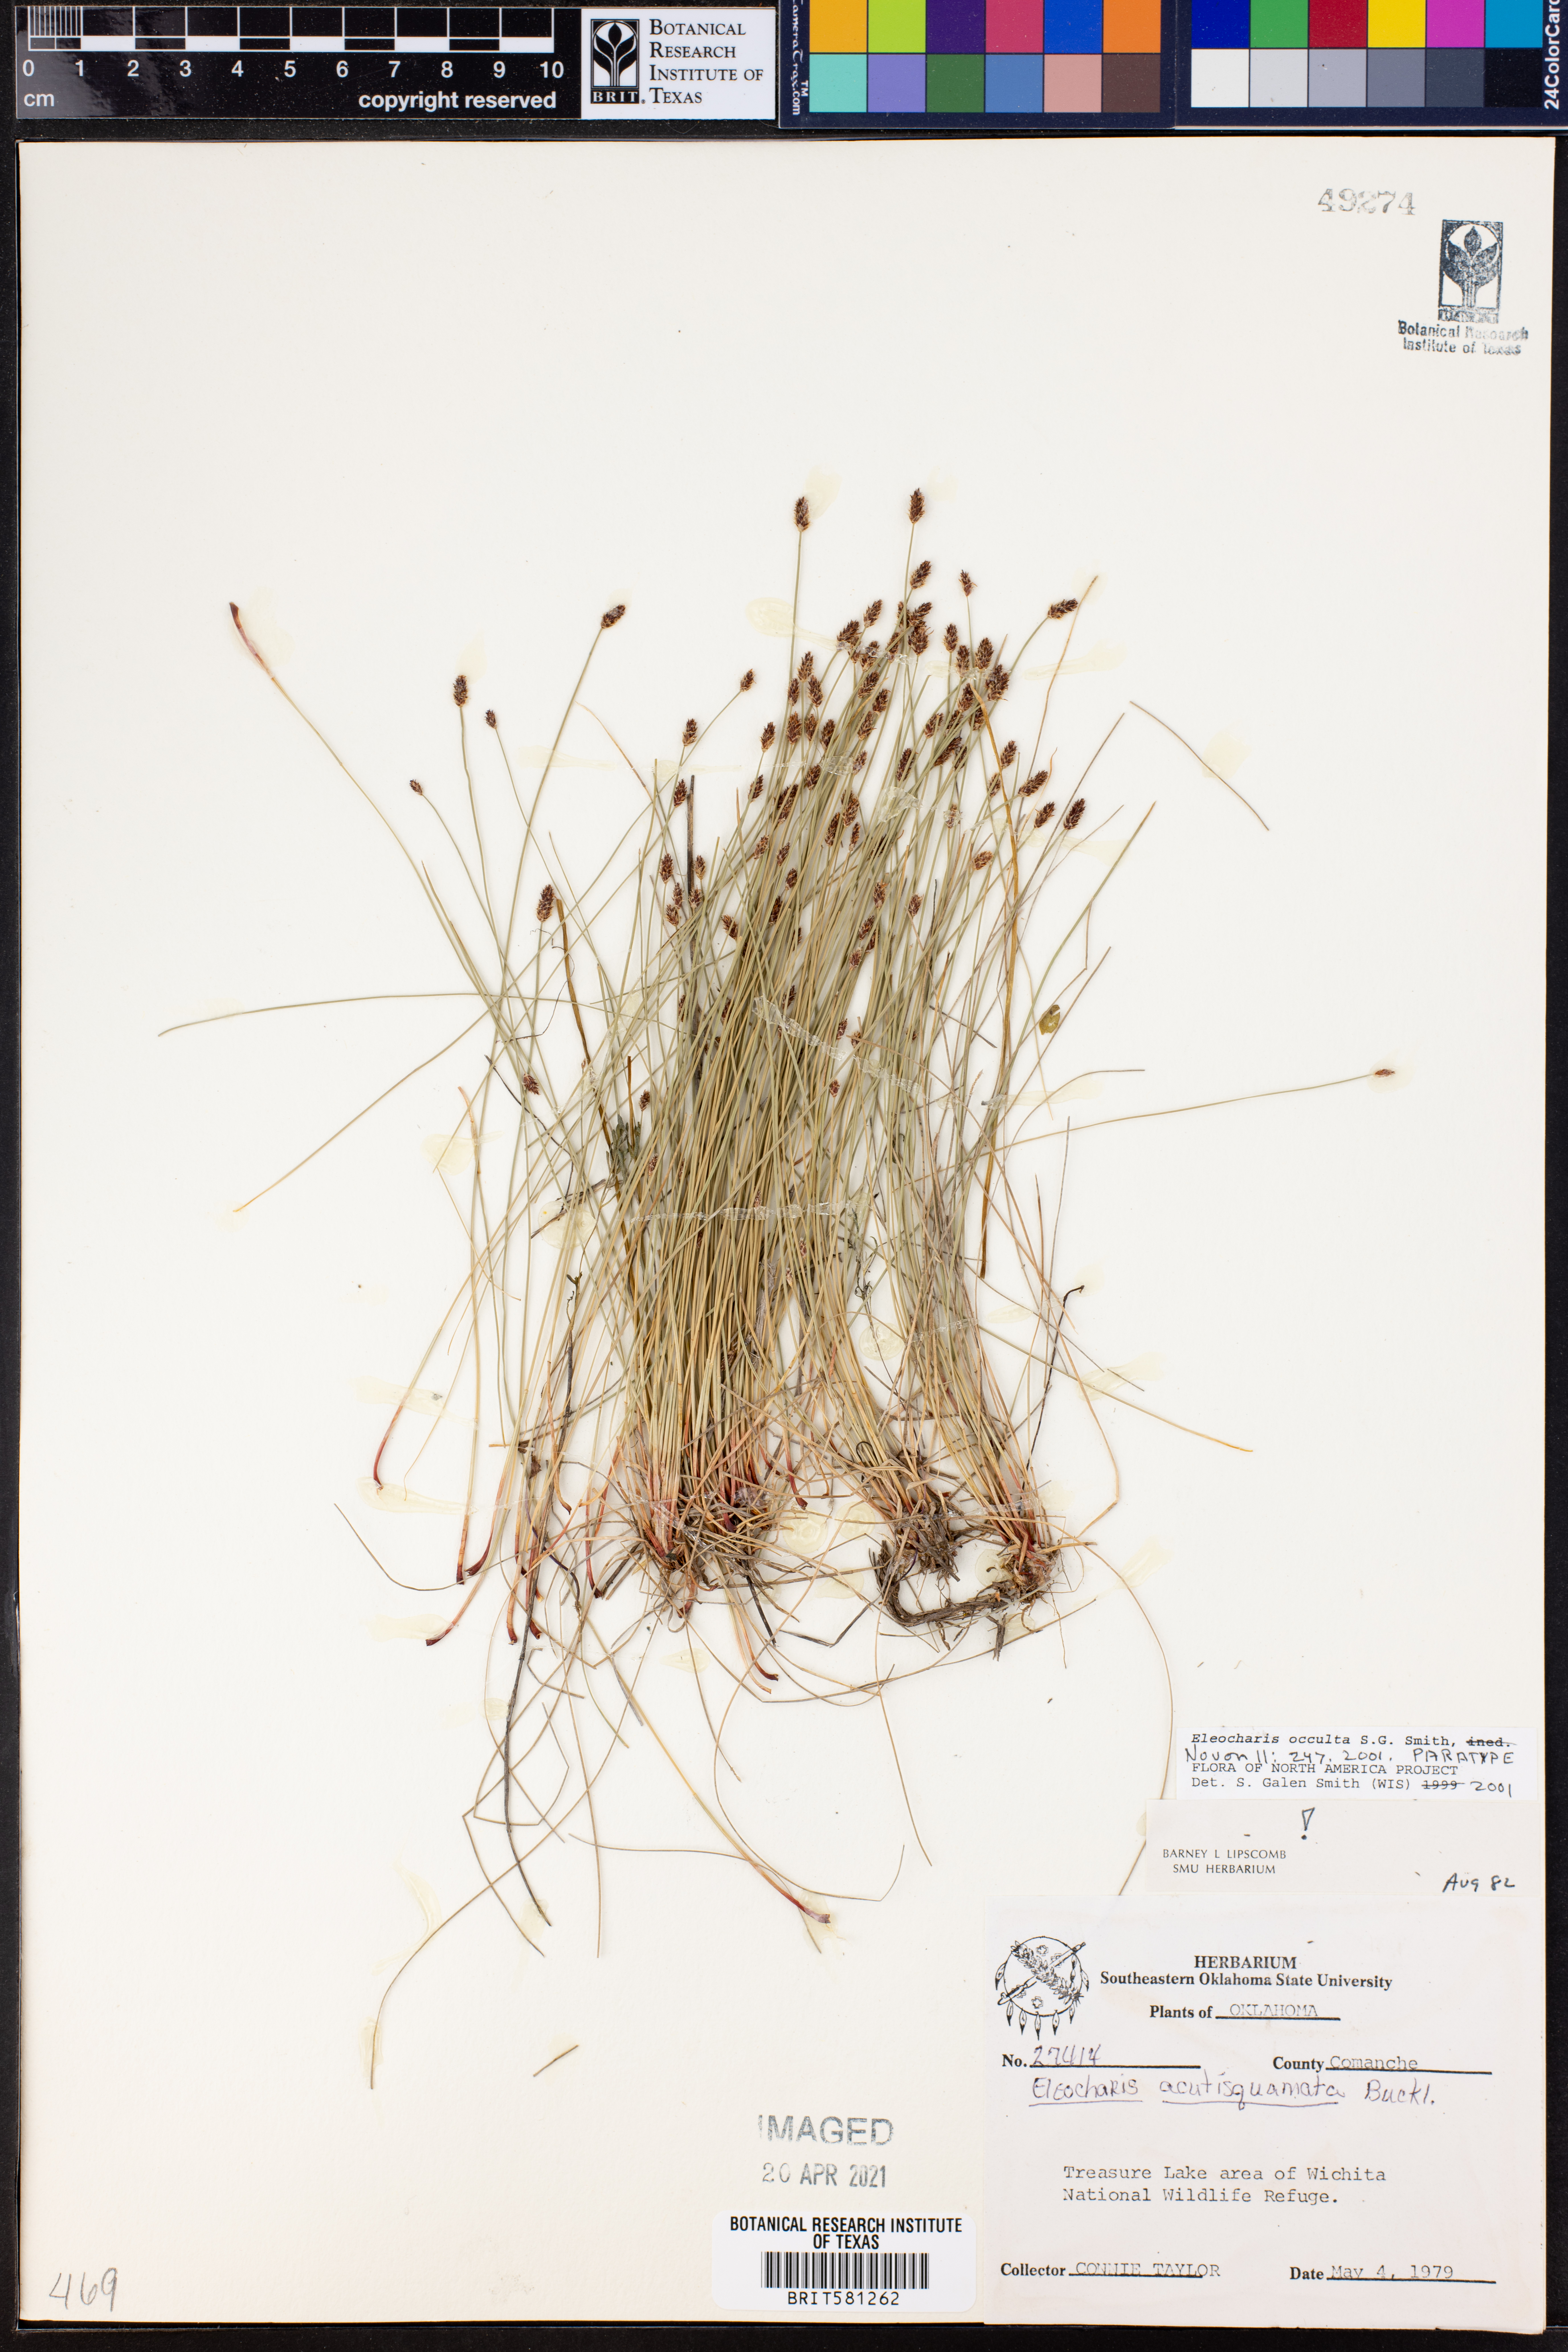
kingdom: Plantae
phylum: Tracheophyta
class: Liliopsida
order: Poales
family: Cyperaceae
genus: Eleocharis
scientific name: Eleocharis occulta
